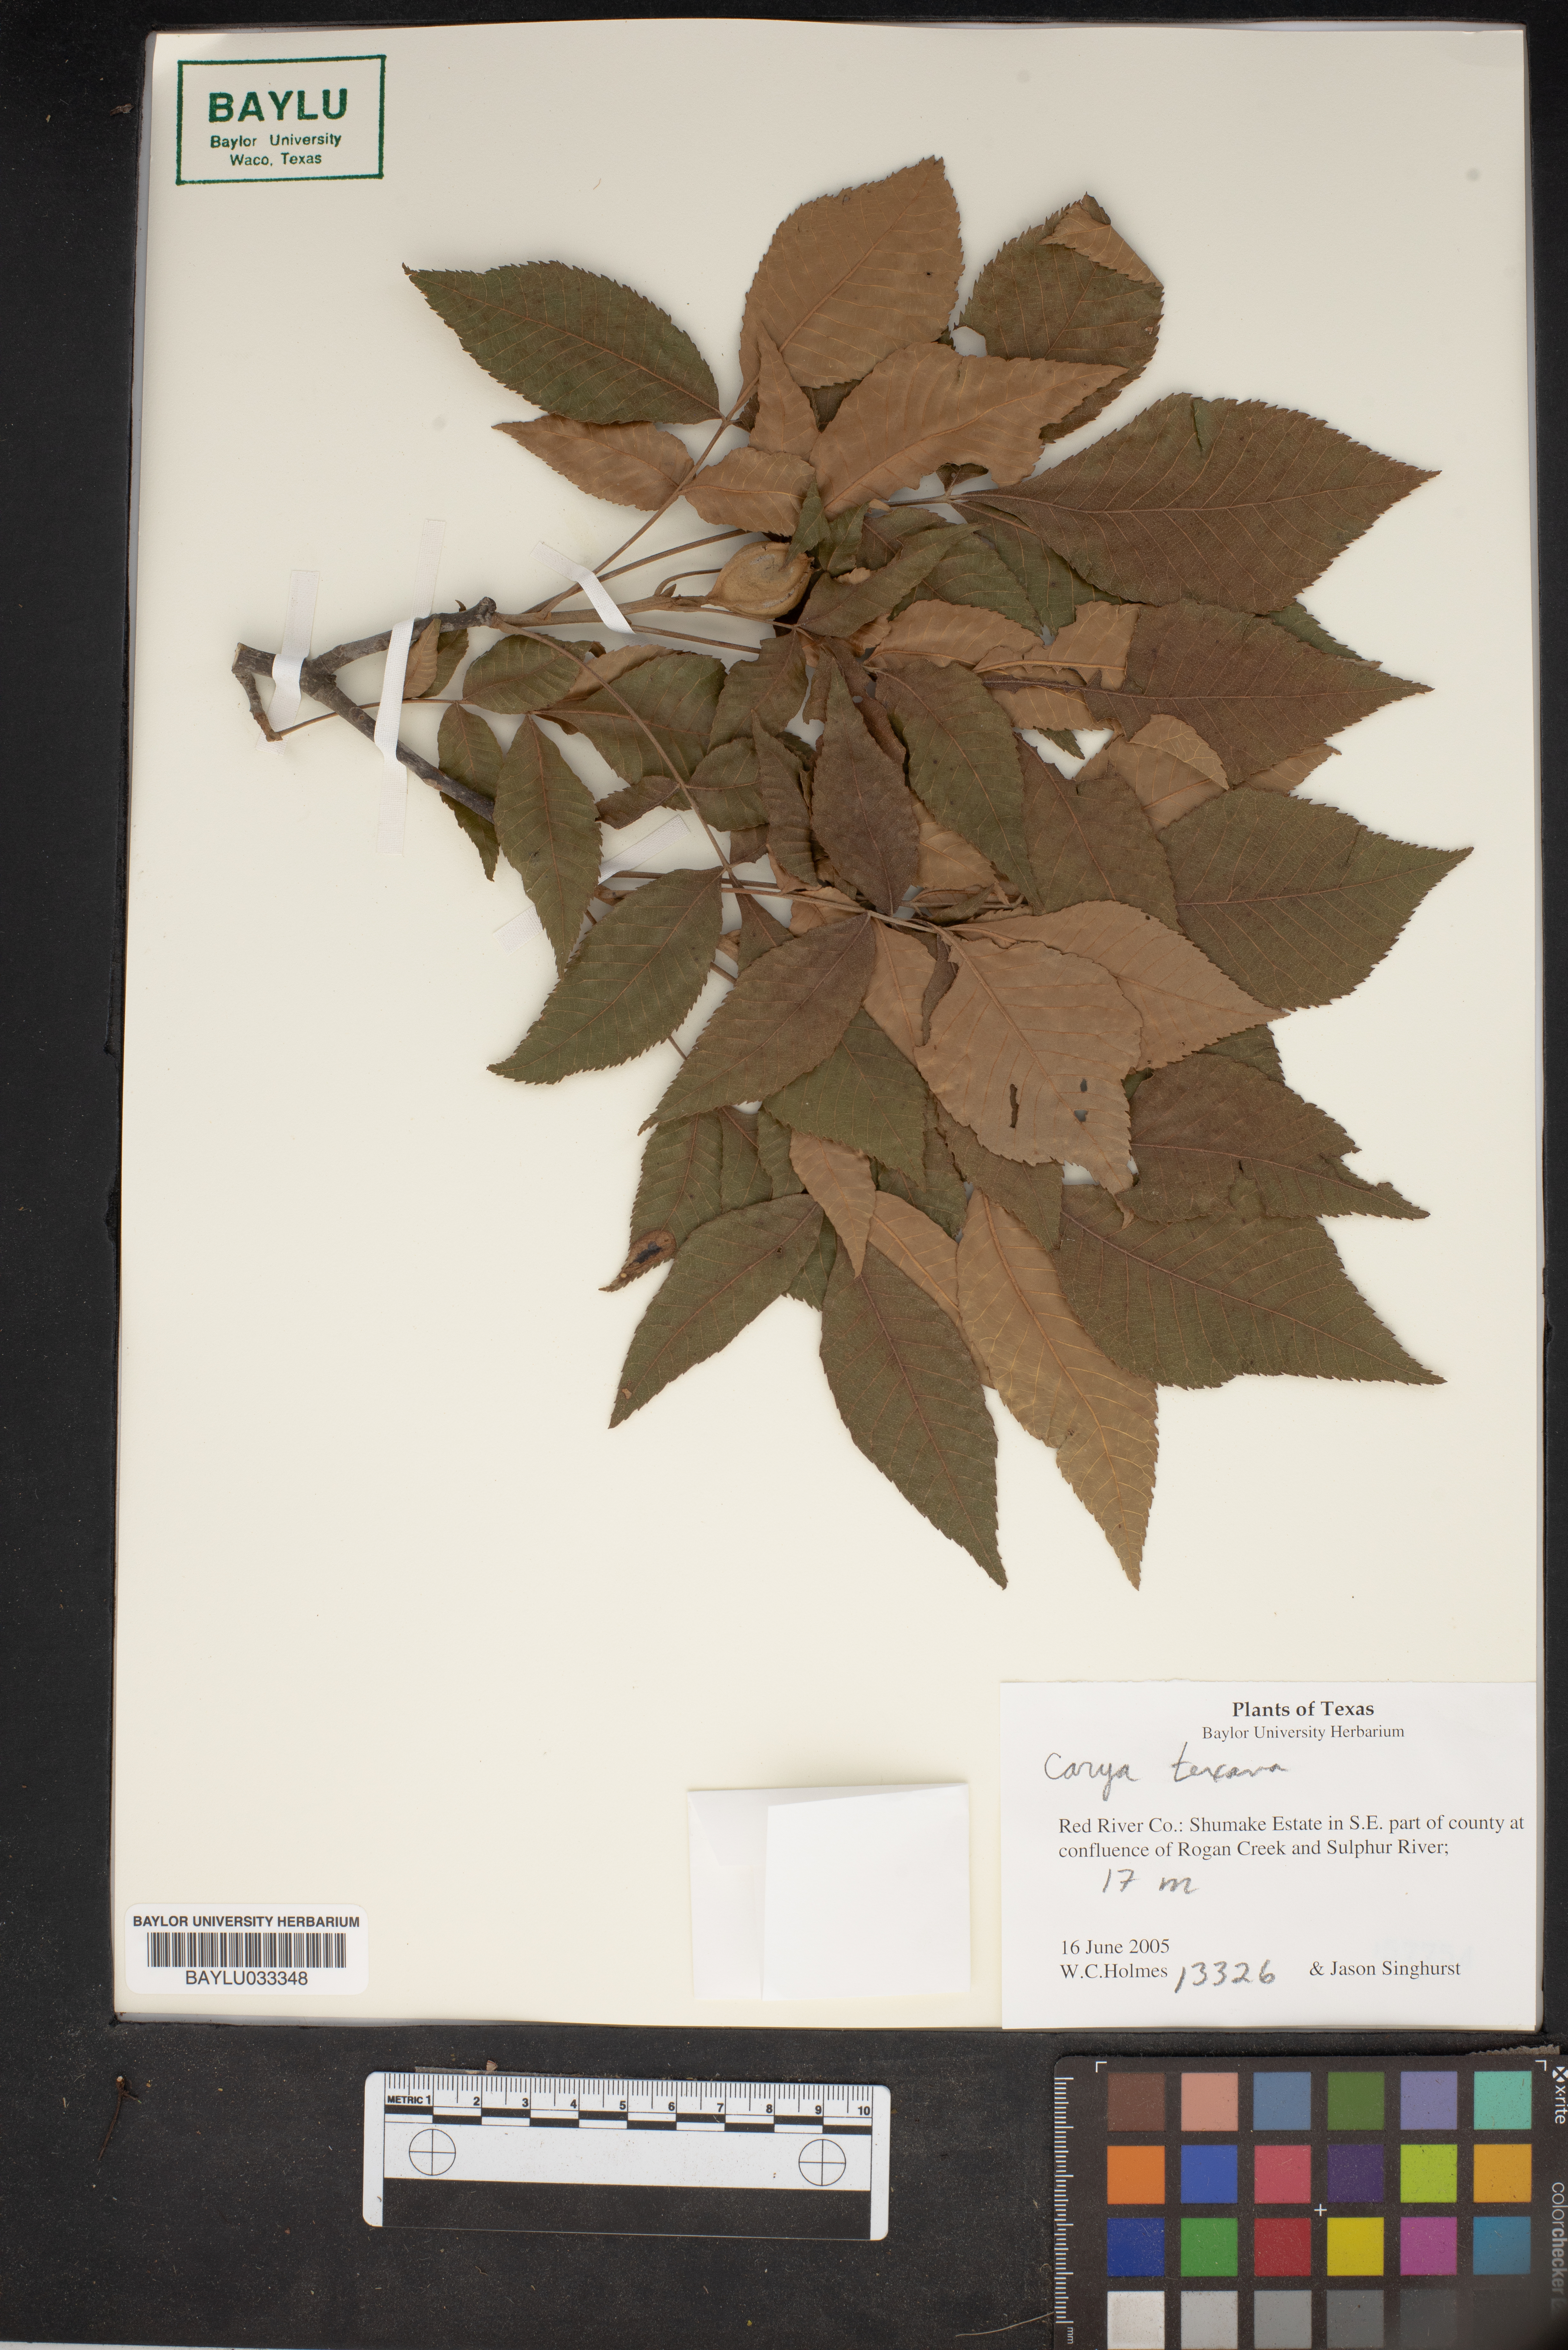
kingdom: Plantae
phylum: Tracheophyta
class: Magnoliopsida
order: Fagales
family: Juglandaceae
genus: Carya
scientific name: Carya texana
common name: Black hickory
